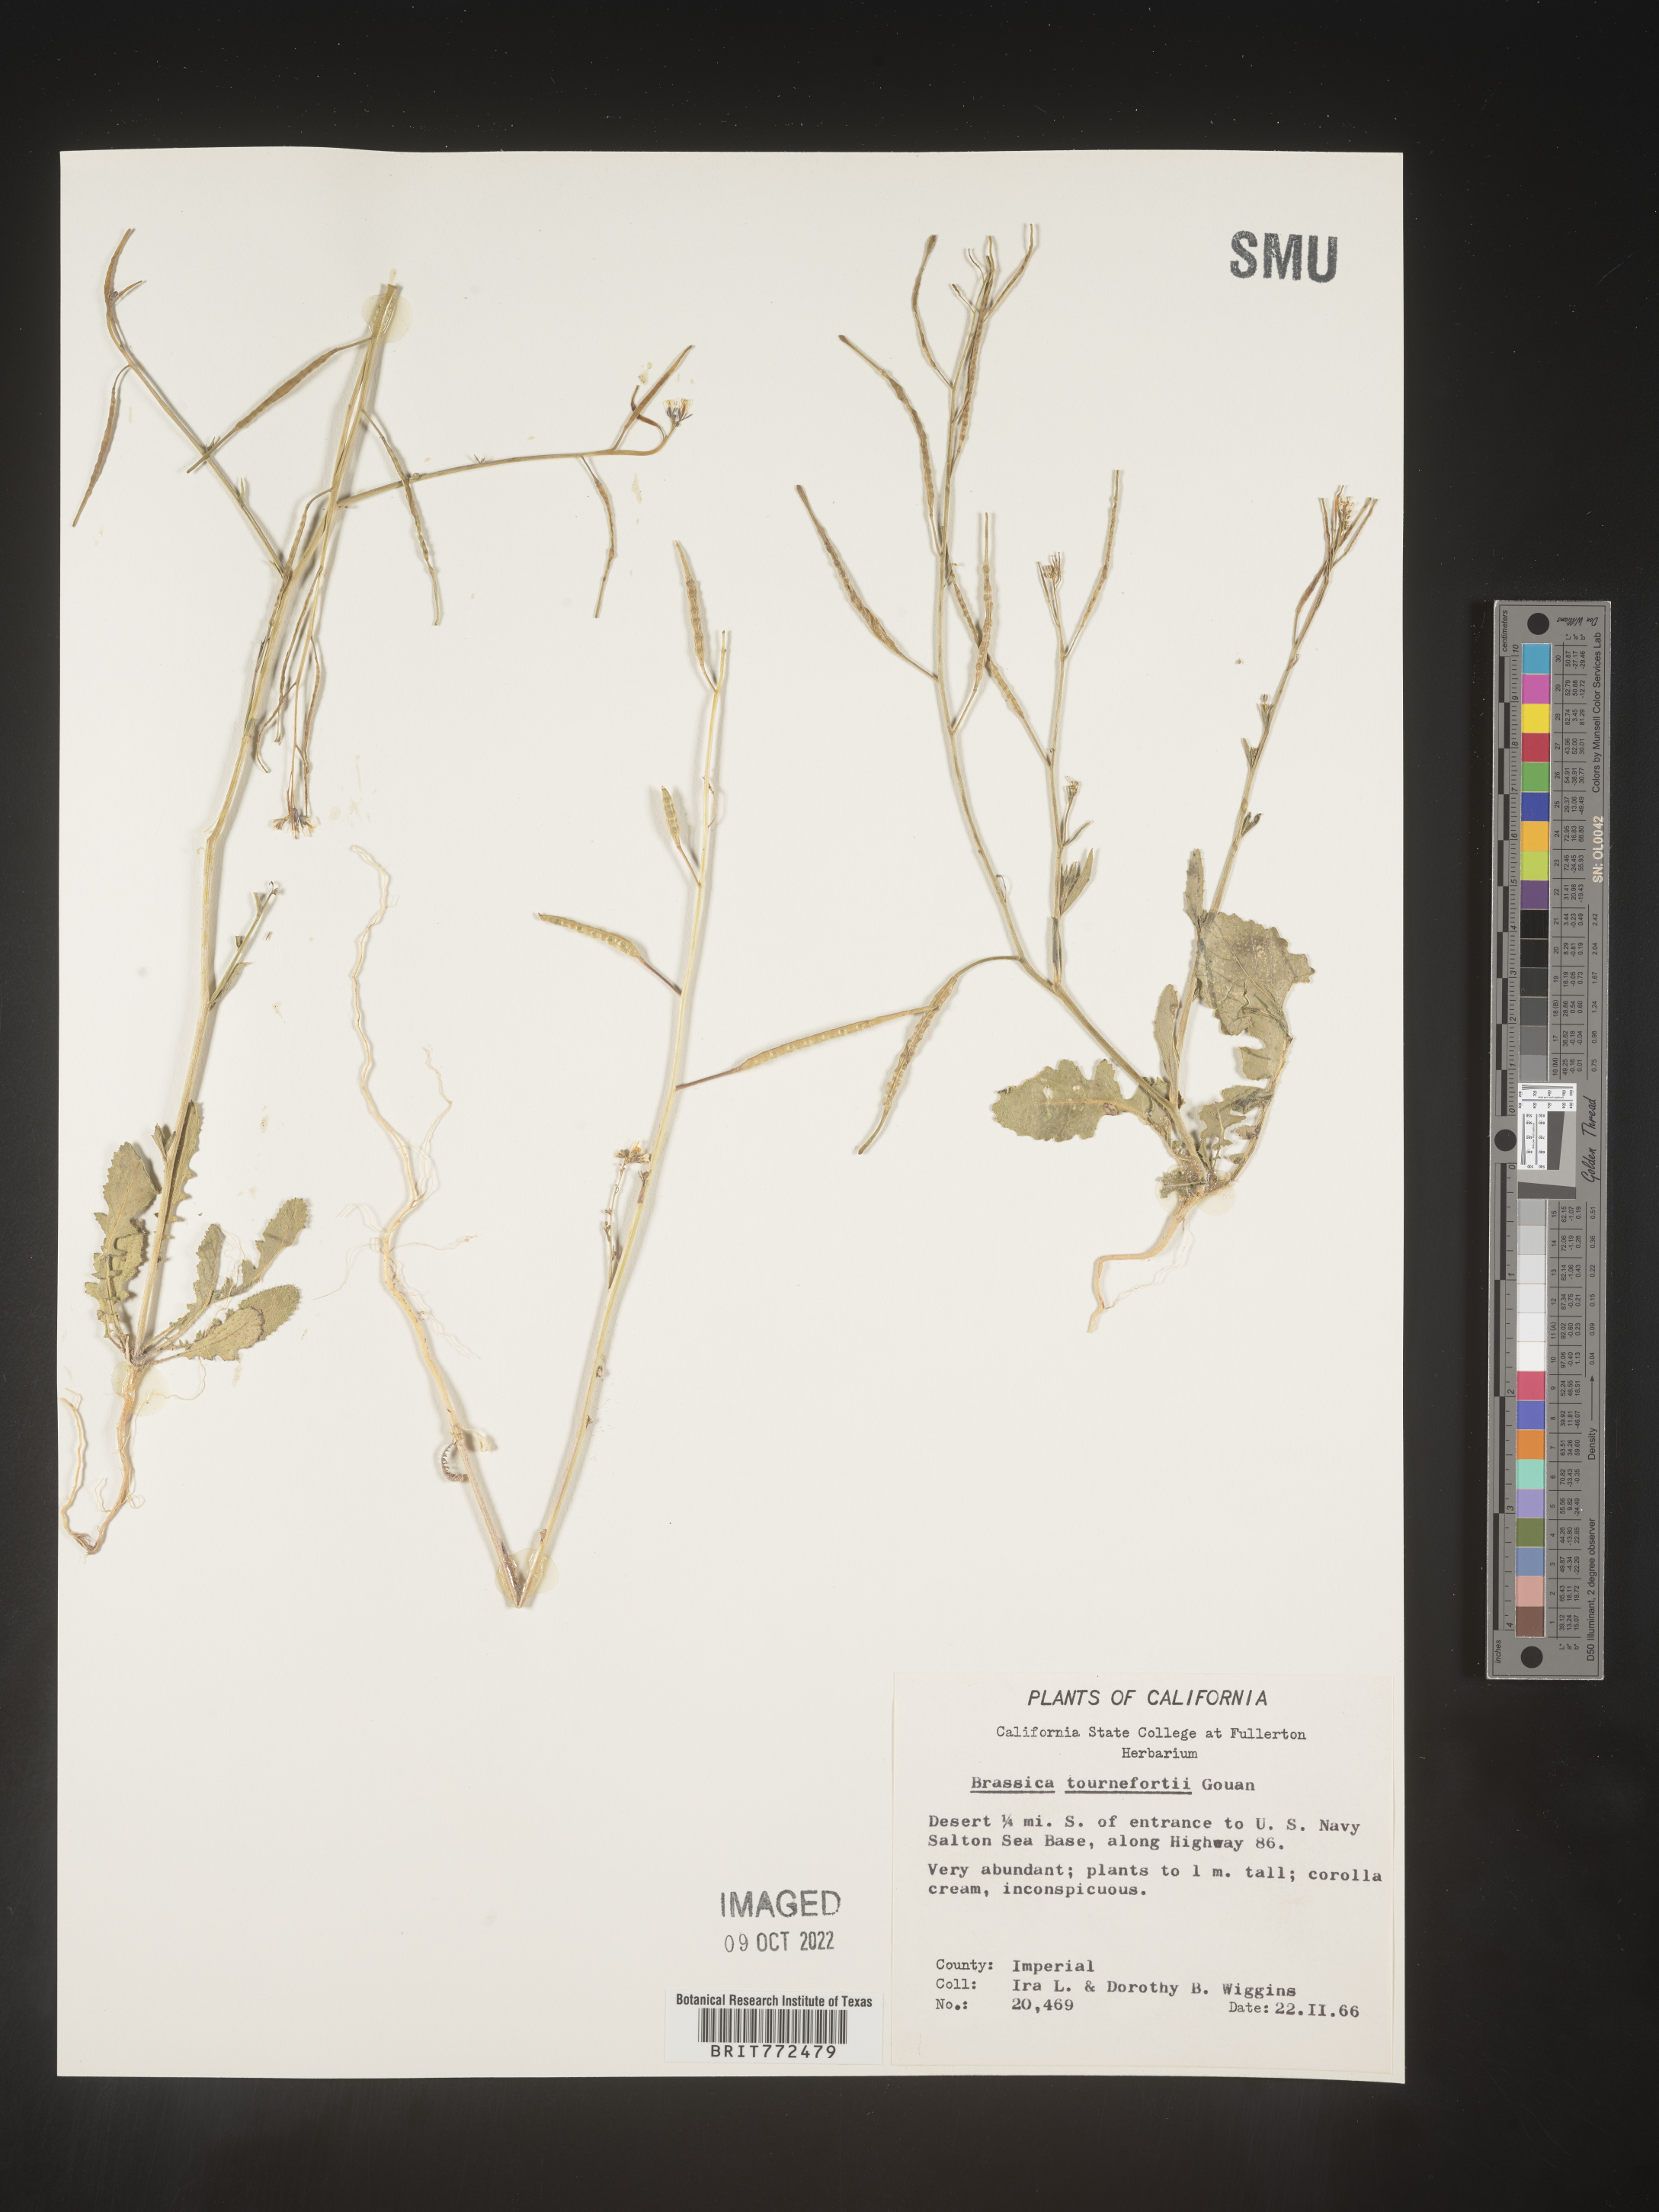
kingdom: Plantae
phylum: Tracheophyta
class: Magnoliopsida
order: Brassicales
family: Brassicaceae
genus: Brassica
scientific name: Brassica
